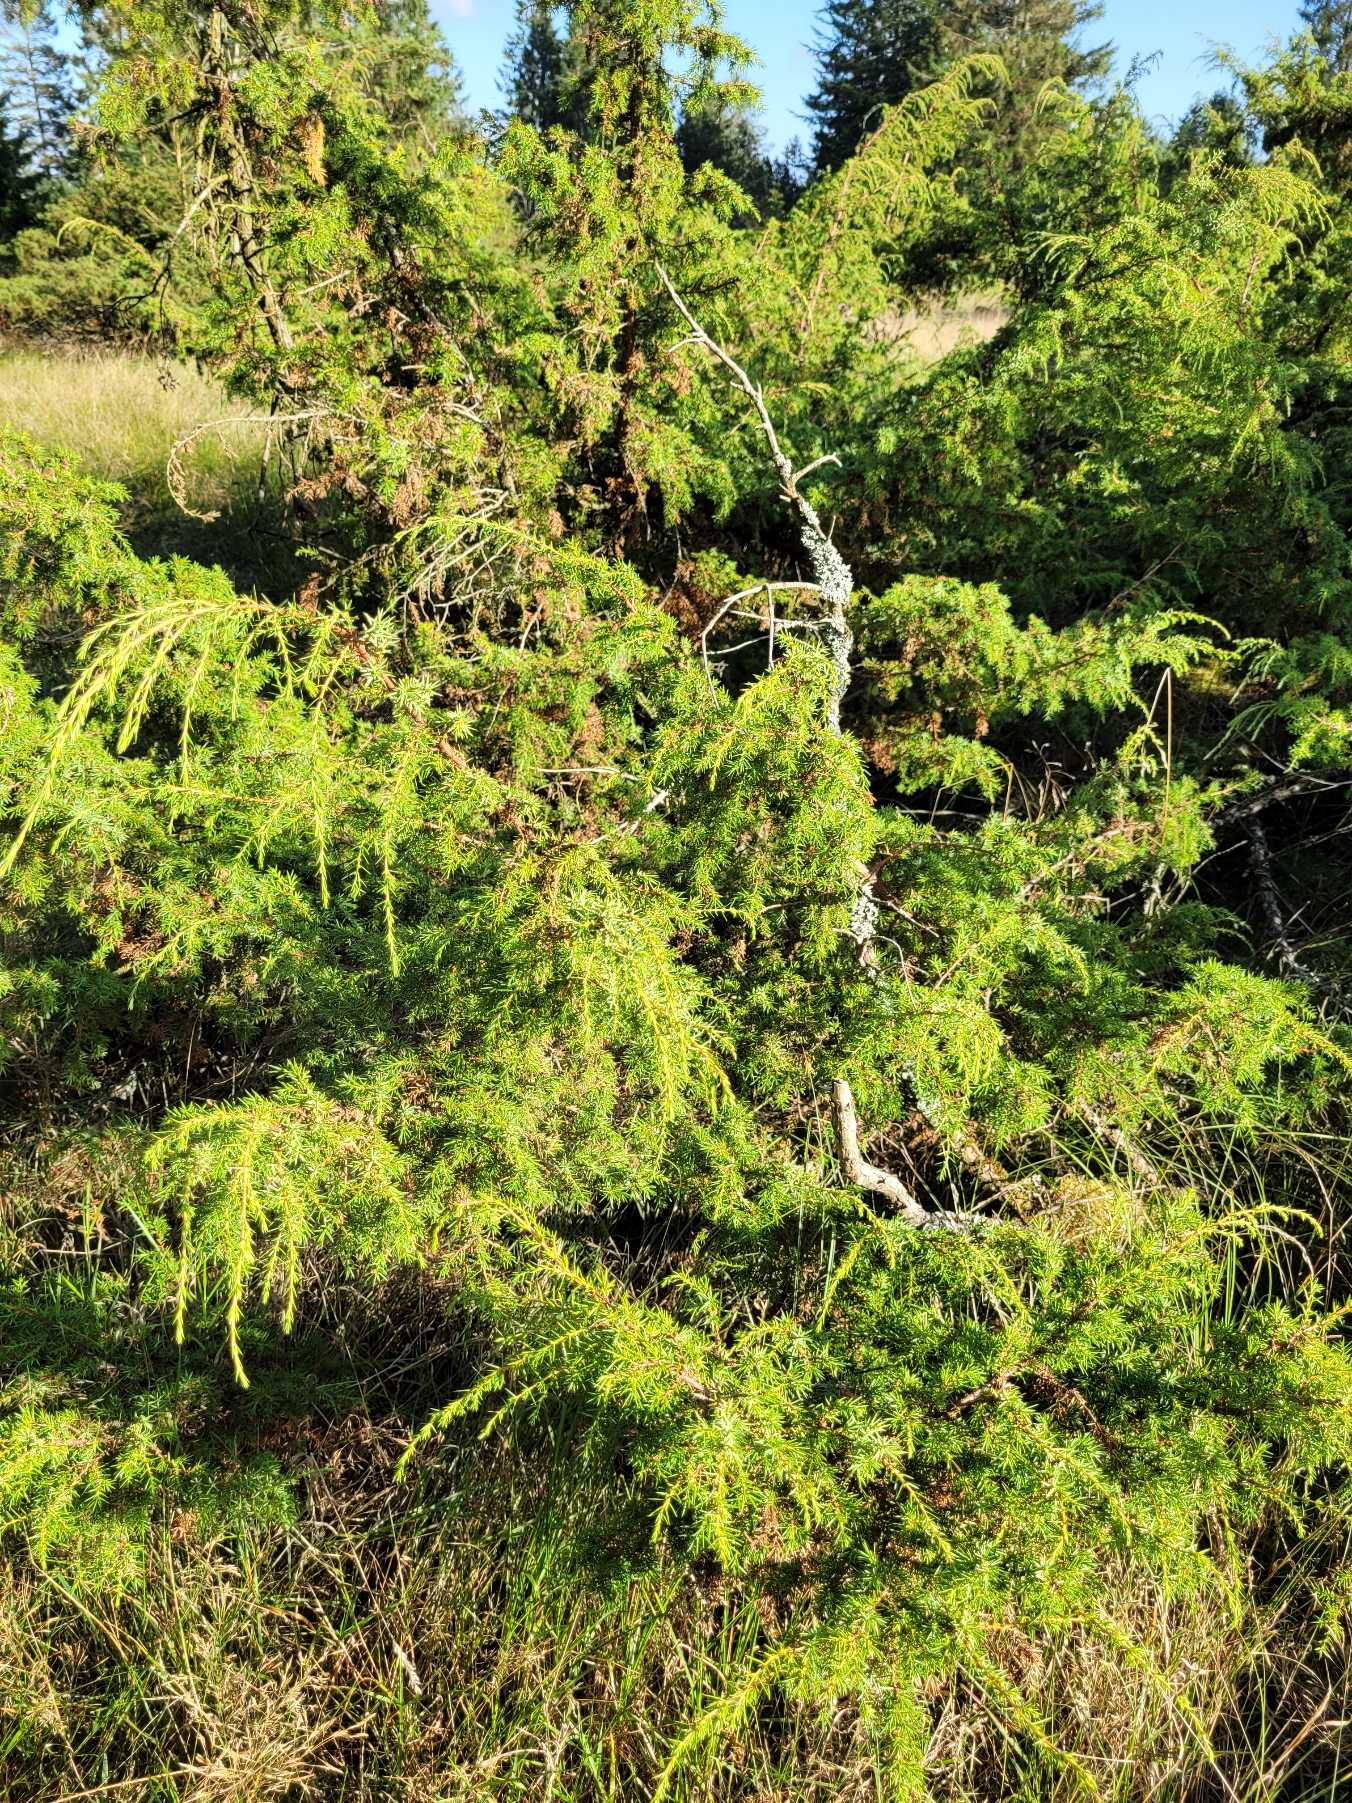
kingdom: Plantae
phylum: Tracheophyta
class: Pinopsida
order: Pinales
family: Cupressaceae
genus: Juniperus
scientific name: Juniperus communis
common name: Almindelig ene
